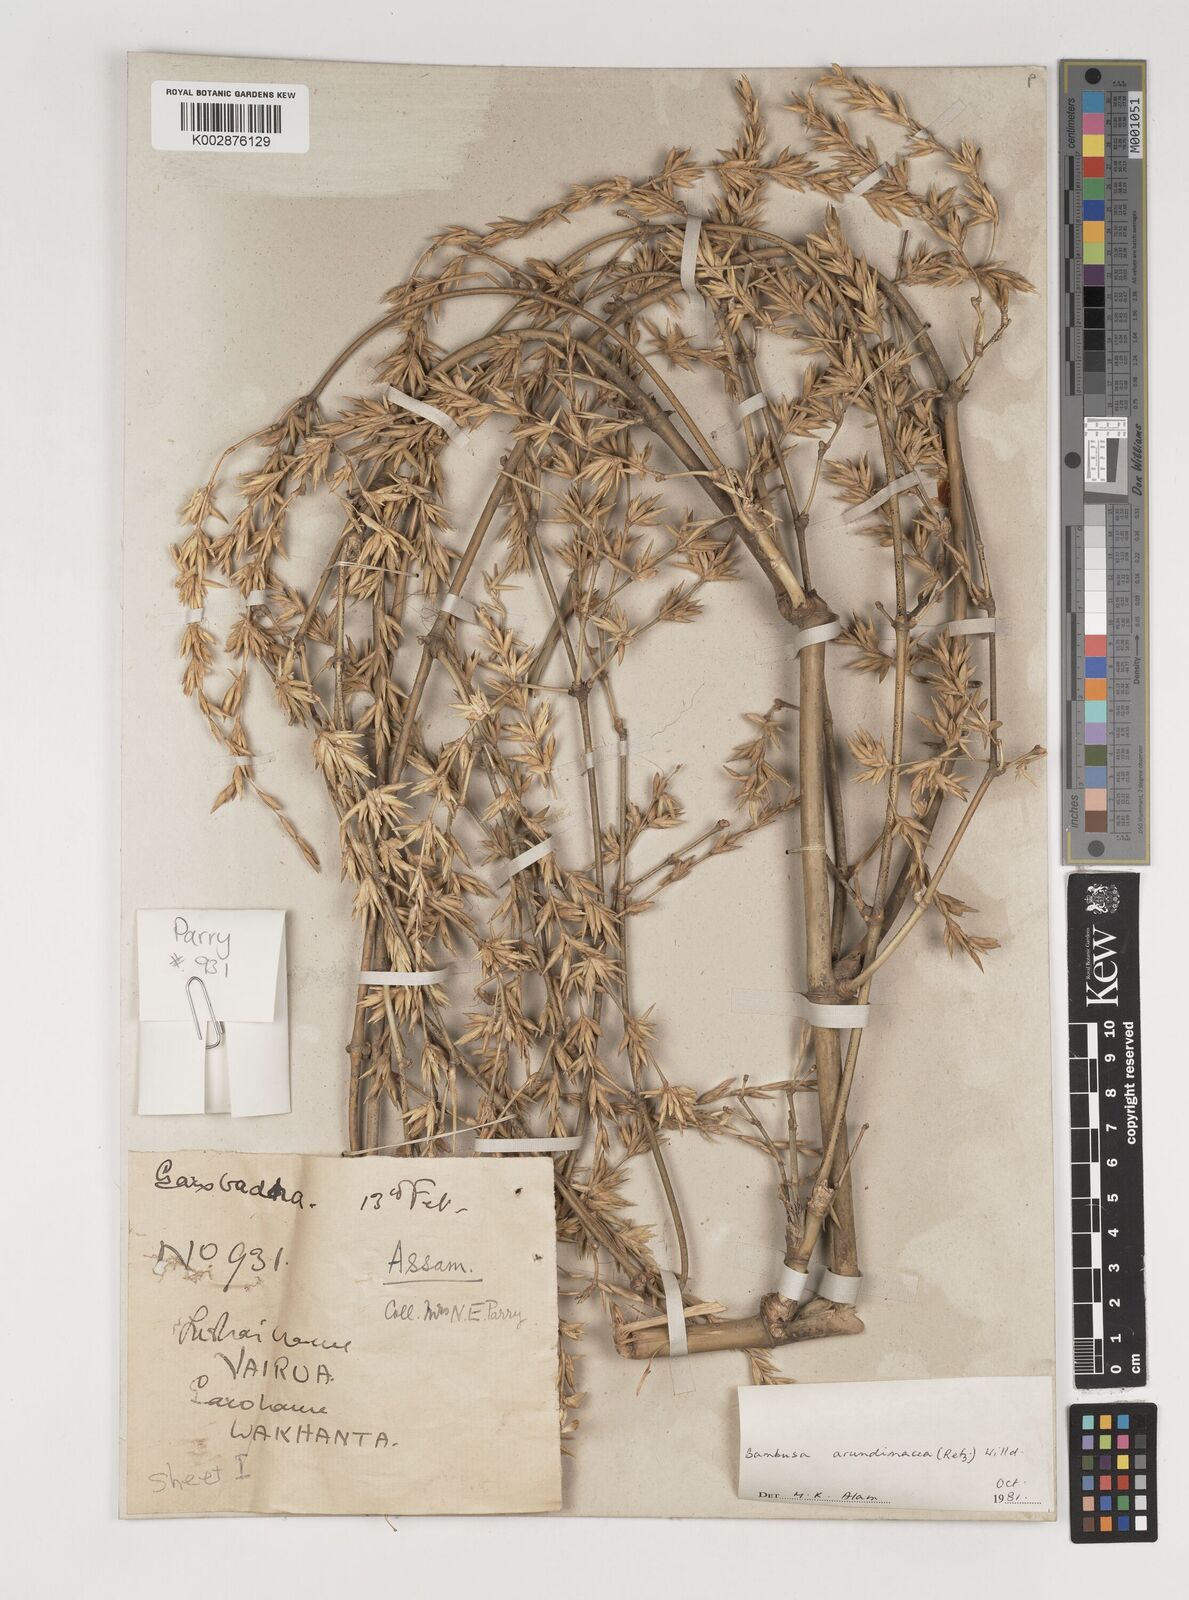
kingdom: Plantae
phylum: Tracheophyta
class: Liliopsida
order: Poales
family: Poaceae
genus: Bambusa
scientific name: Bambusa bambos
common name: Indian thorny bamboo
